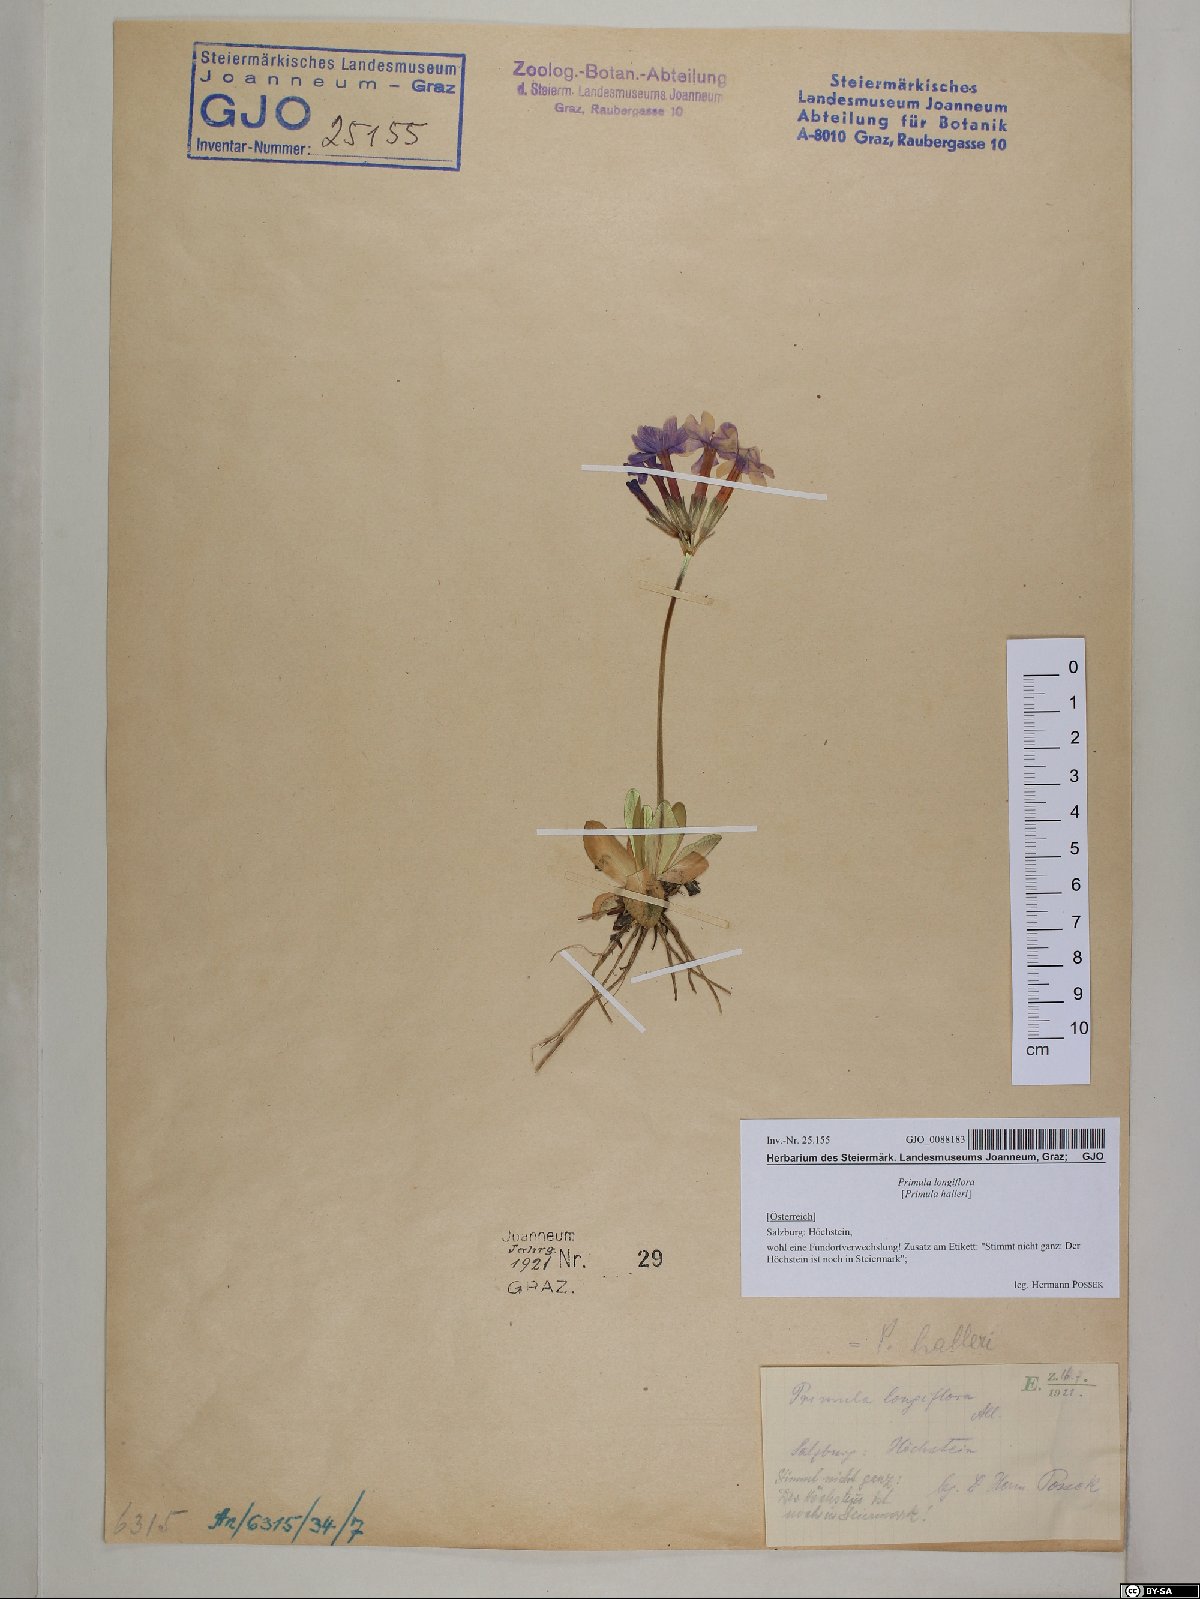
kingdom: Plantae
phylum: Tracheophyta
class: Magnoliopsida
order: Ericales
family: Primulaceae
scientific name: Primulaceae
